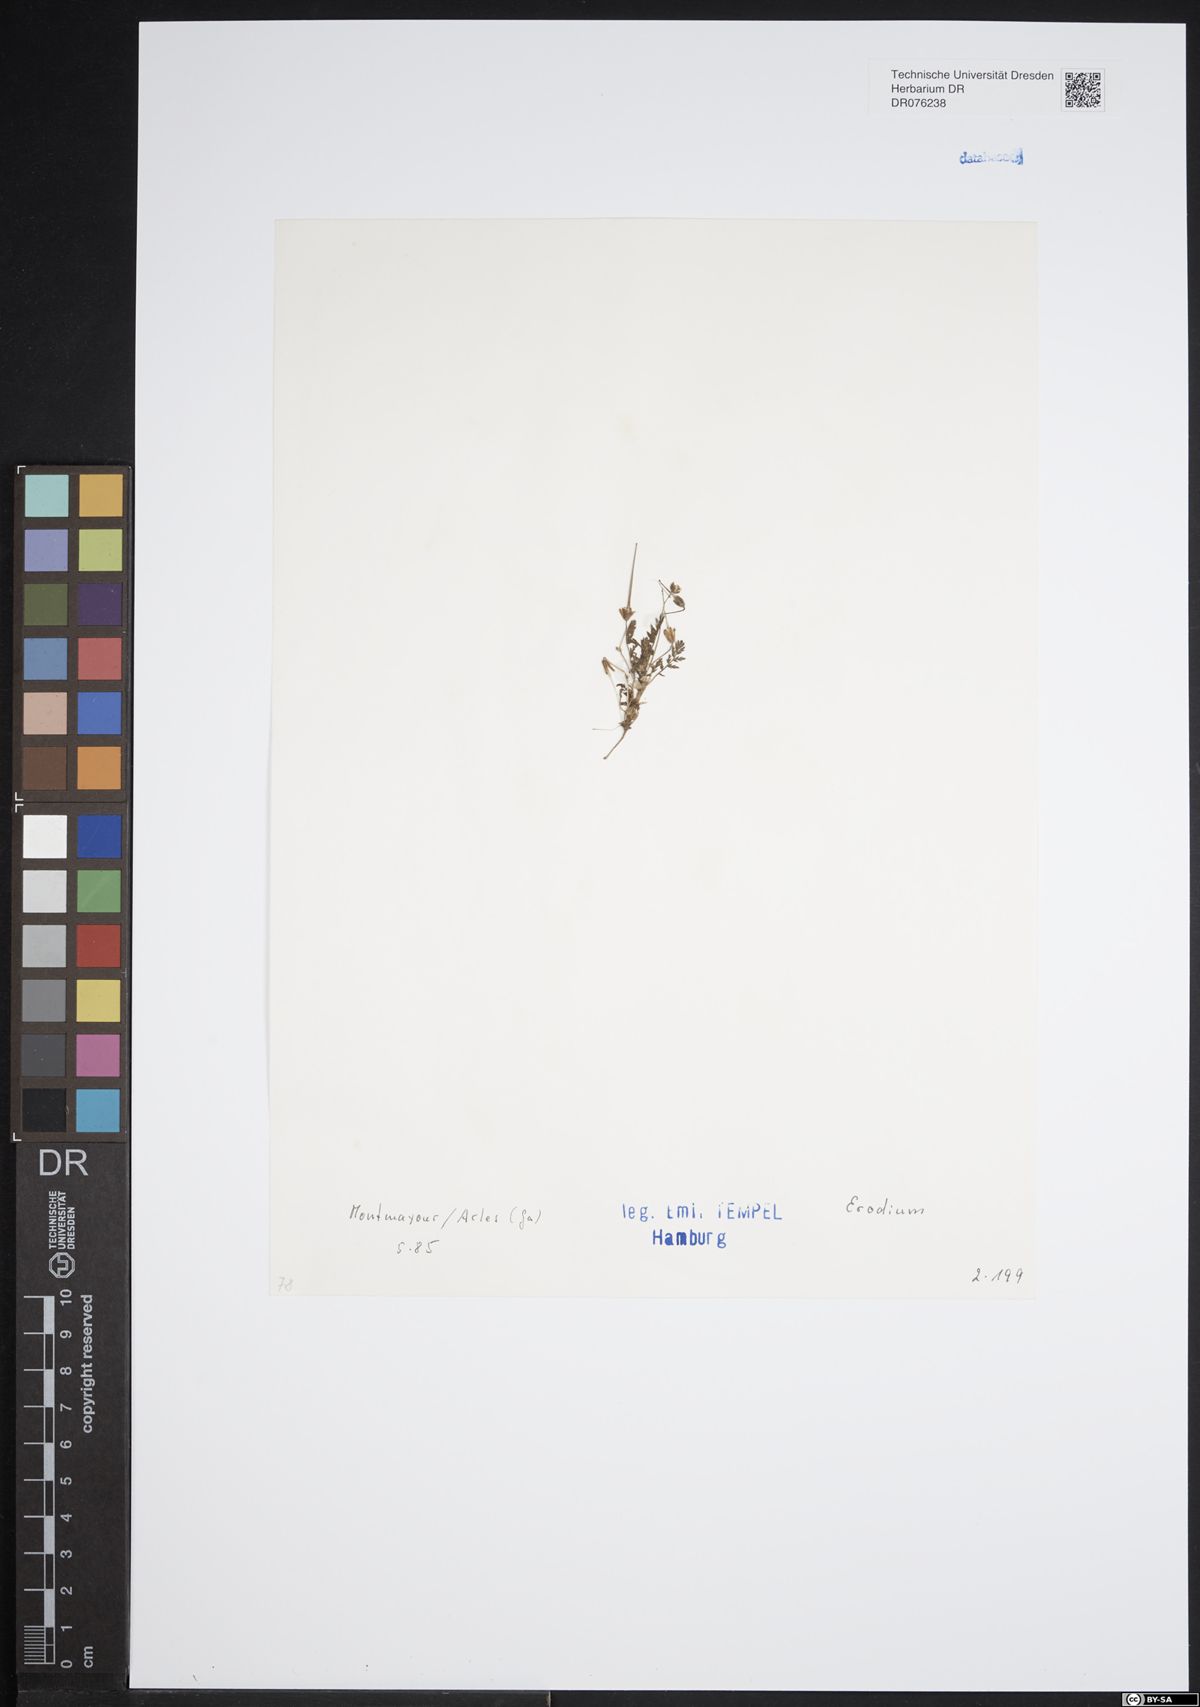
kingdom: Plantae
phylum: Tracheophyta
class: Magnoliopsida
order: Geraniales
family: Geraniaceae
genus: Erodium
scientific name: Erodium
